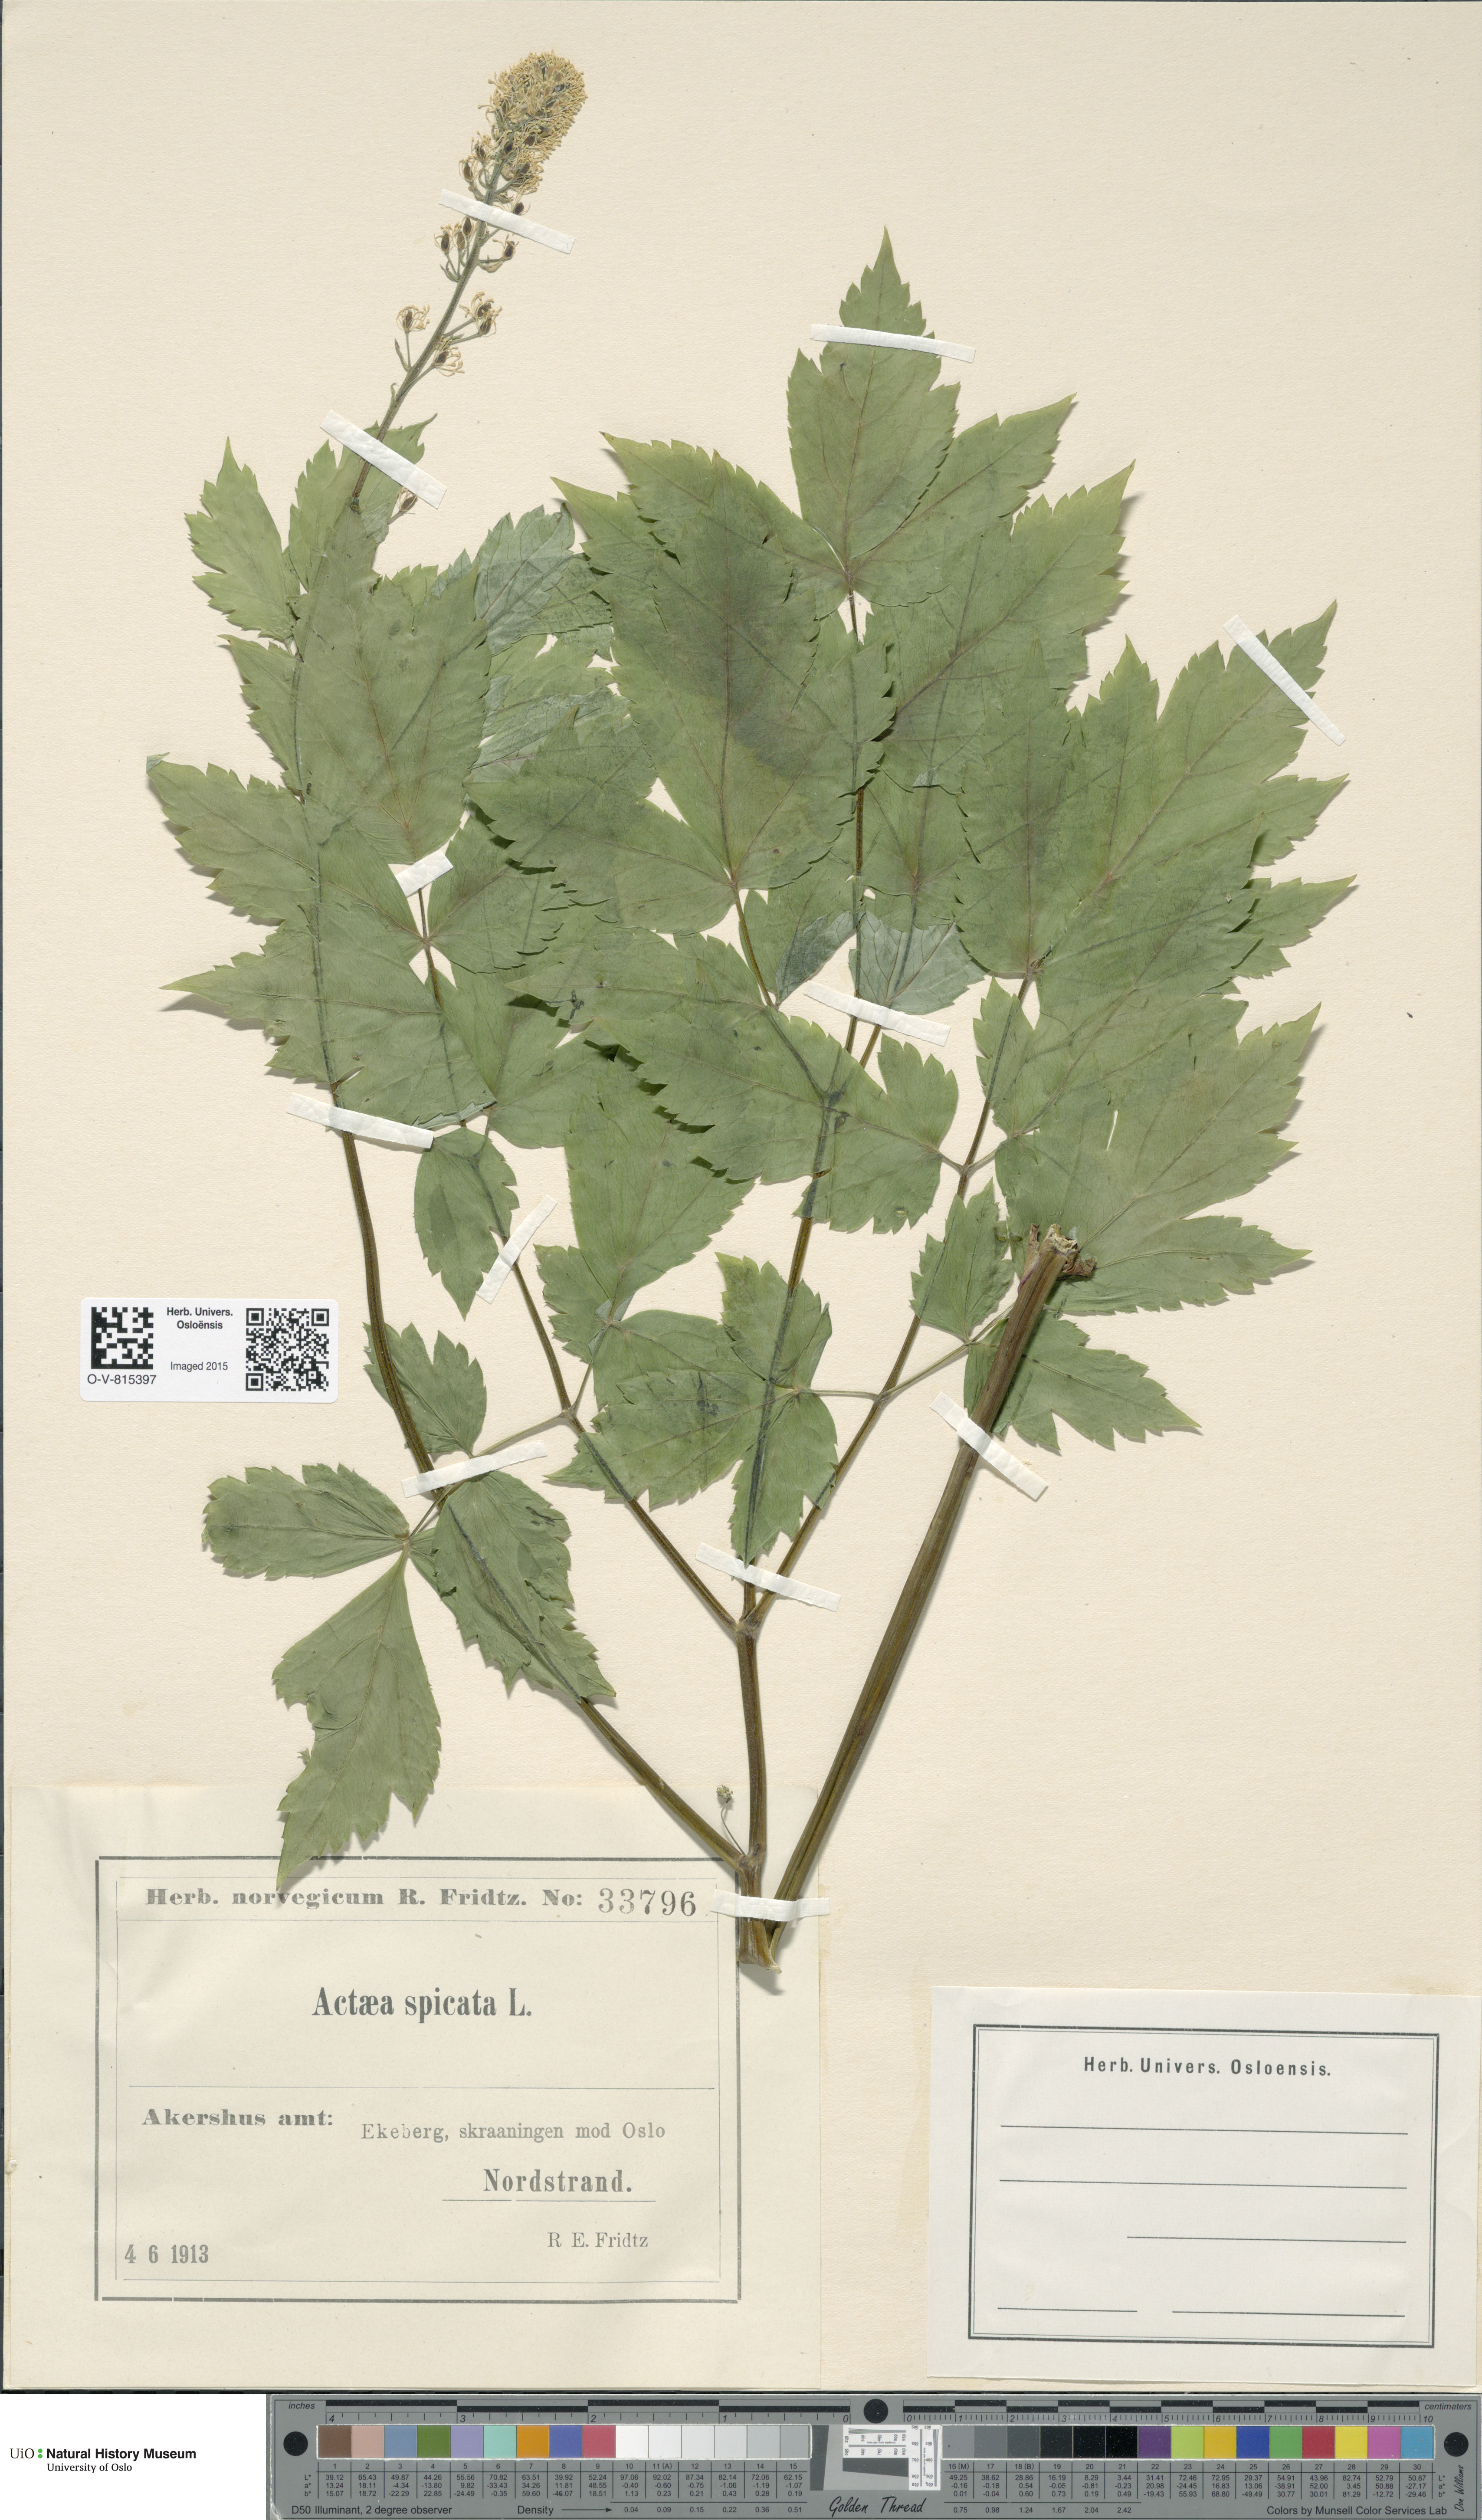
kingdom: Plantae
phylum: Tracheophyta
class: Magnoliopsida
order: Ranunculales
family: Ranunculaceae
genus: Actaea
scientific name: Actaea spicata
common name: Baneberry
